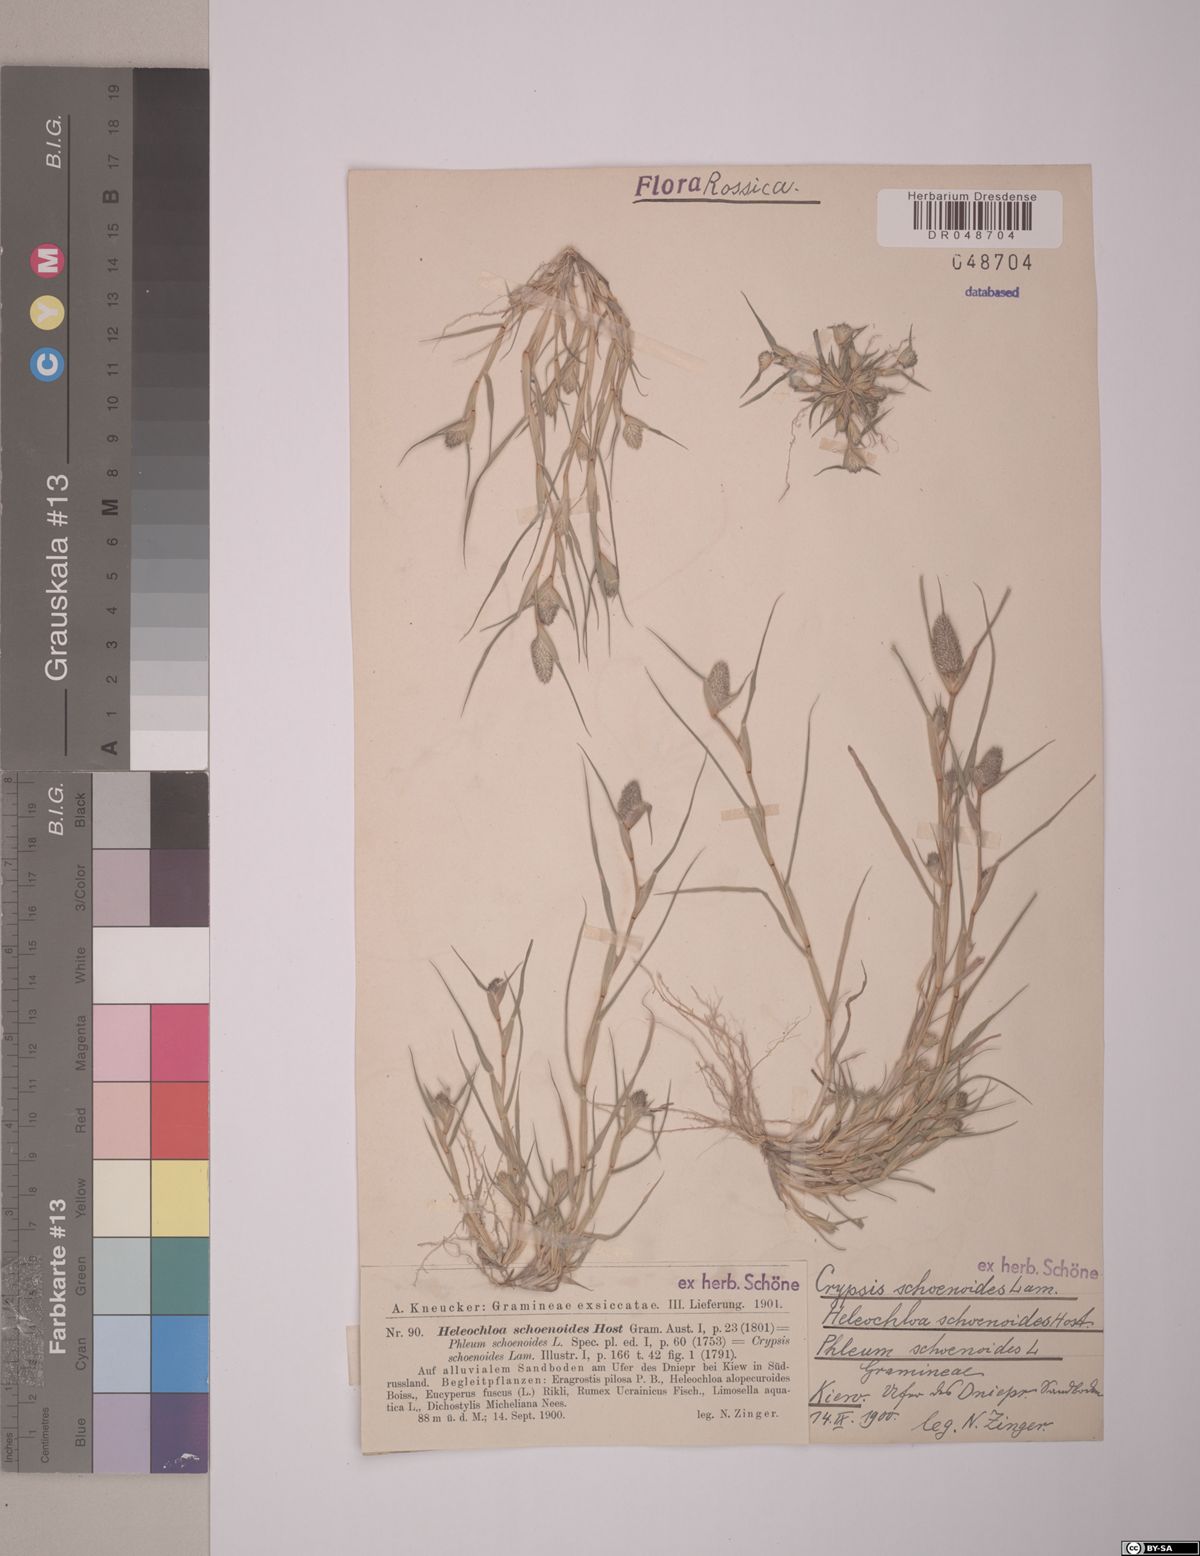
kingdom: Plantae
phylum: Tracheophyta
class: Liliopsida
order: Poales
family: Poaceae
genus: Sporobolus
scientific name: Sporobolus schoenoides
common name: Rush-like timothy
